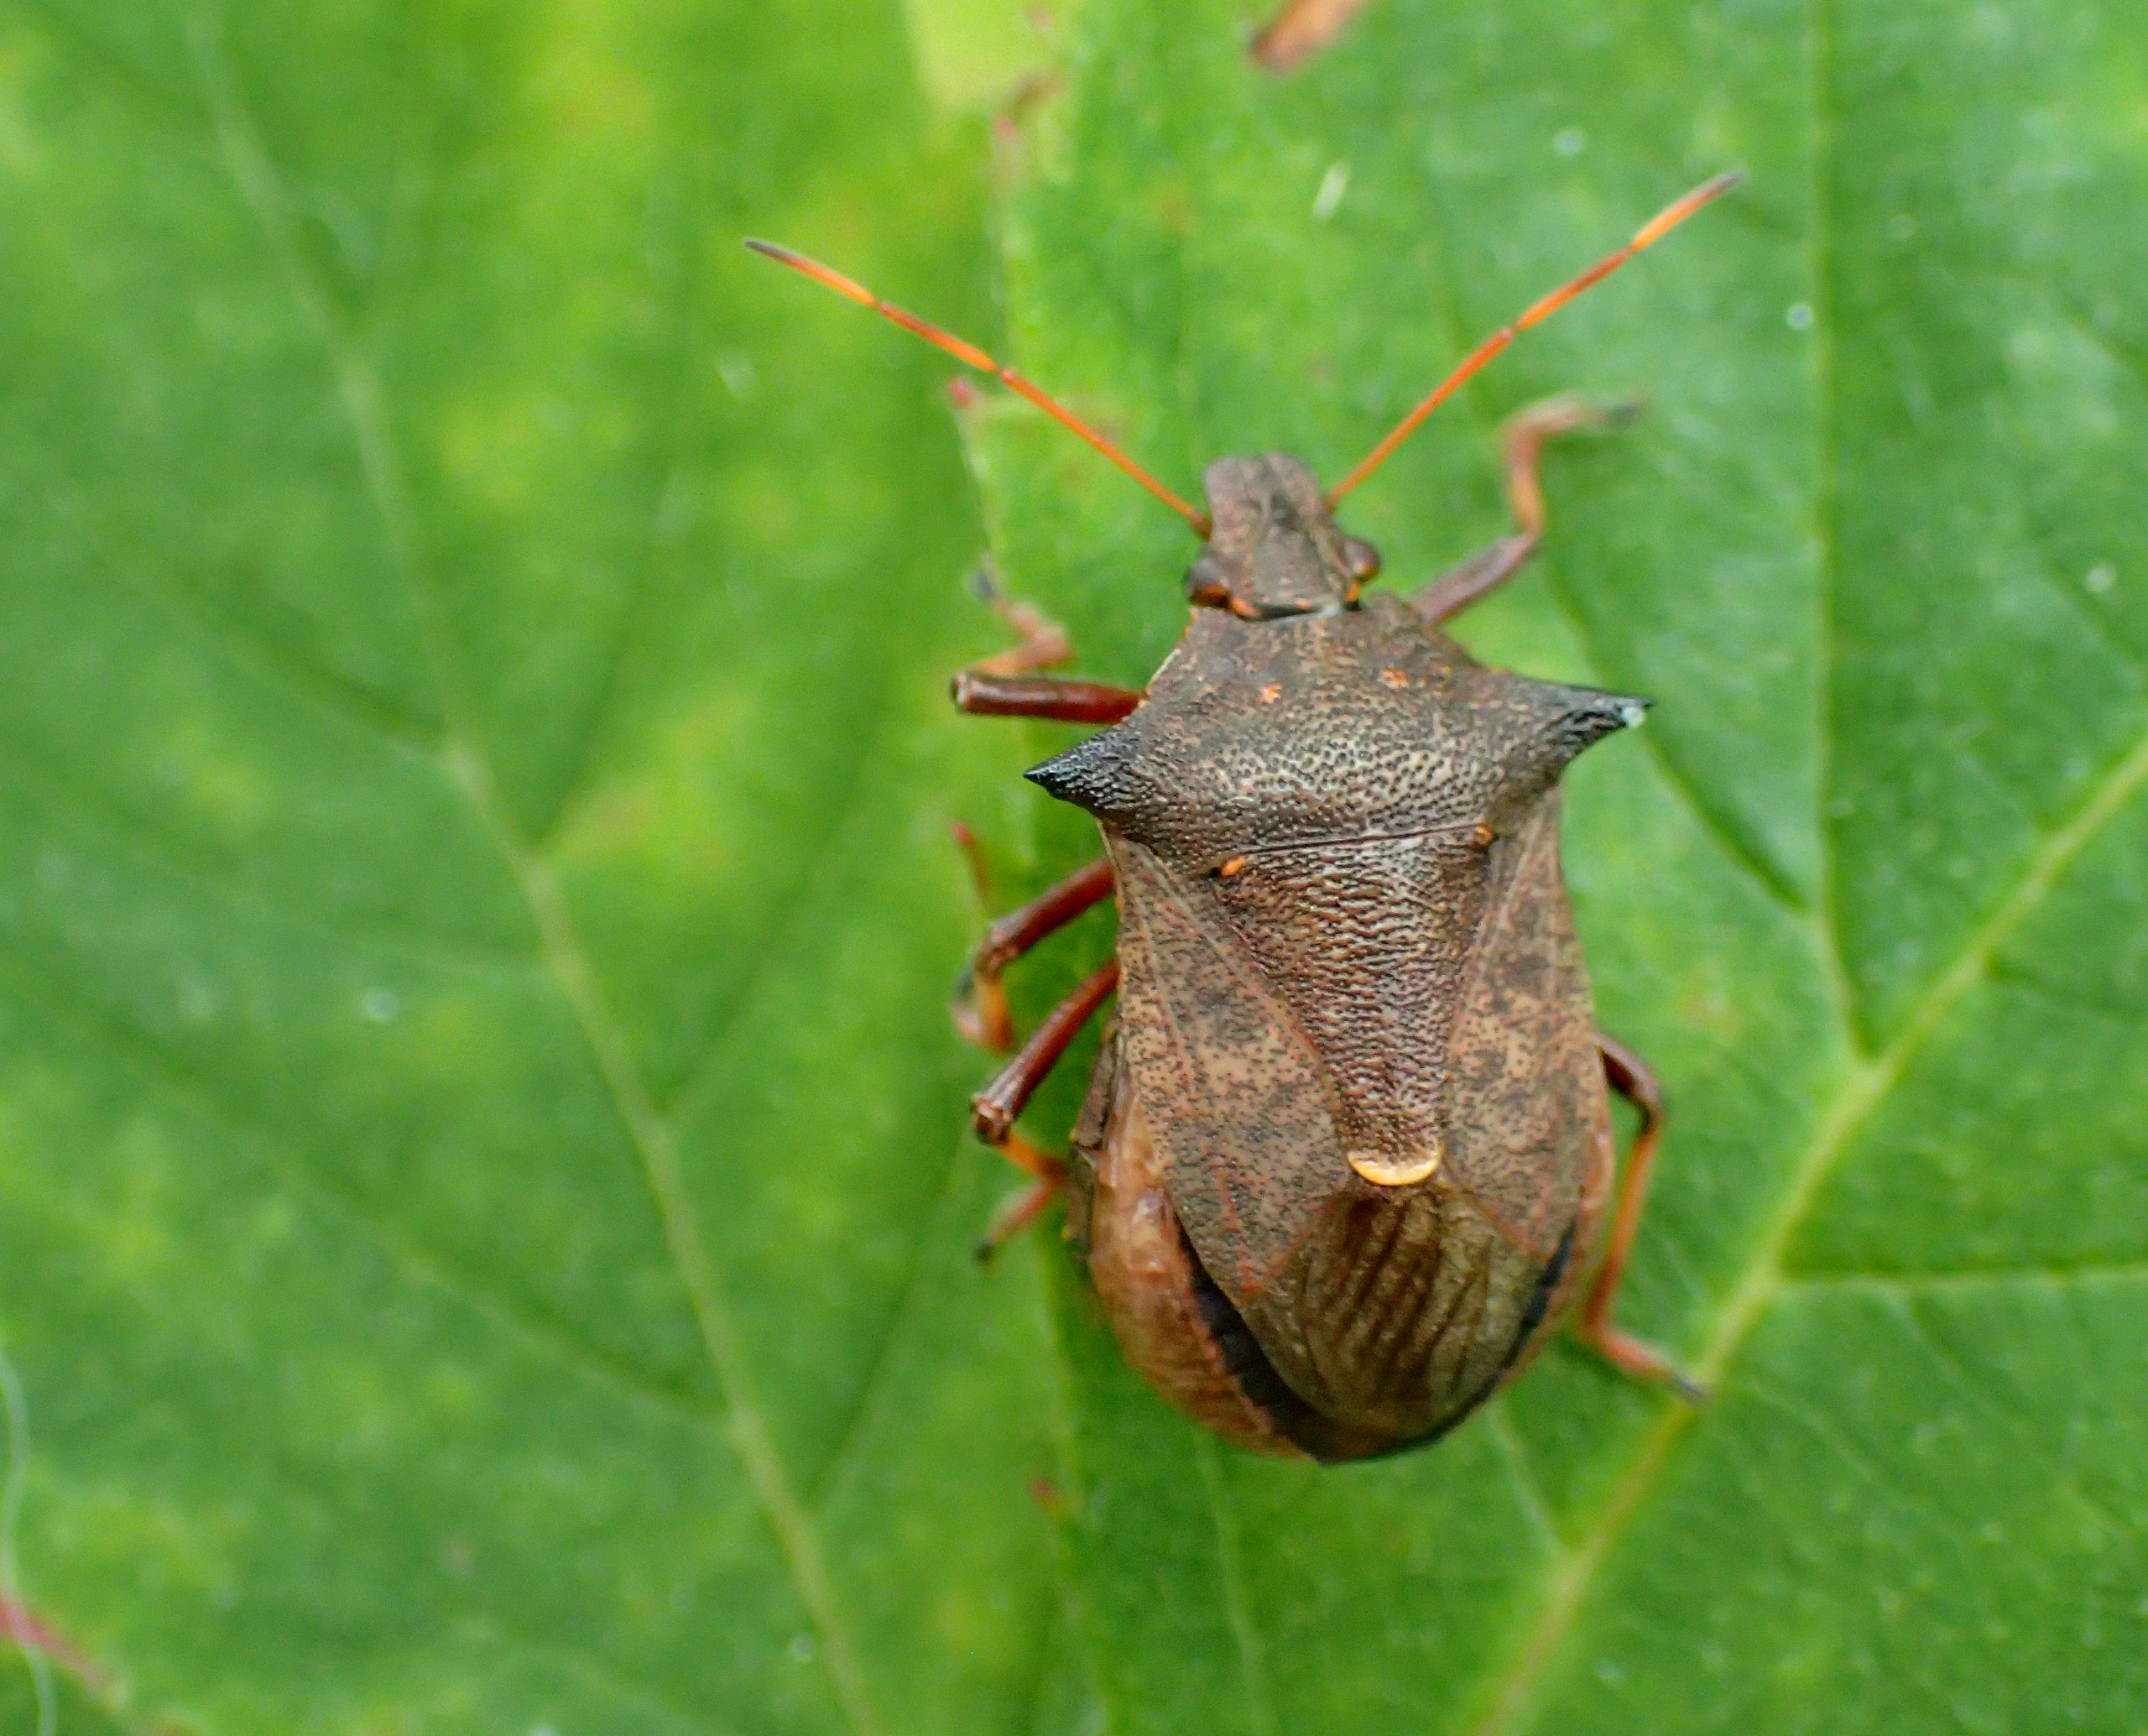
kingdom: Animalia
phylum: Arthropoda
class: Insecta
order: Hemiptera
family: Pentatomidae
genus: Picromerus
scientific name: Picromerus bidens
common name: Torntæge
